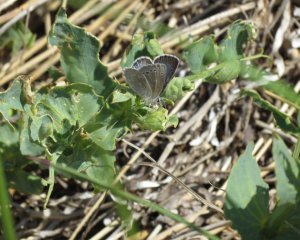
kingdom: Animalia
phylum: Arthropoda
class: Insecta
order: Lepidoptera
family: Lycaenidae
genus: Glaucopsyche
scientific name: Glaucopsyche lygdamus
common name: Silvery Blue
